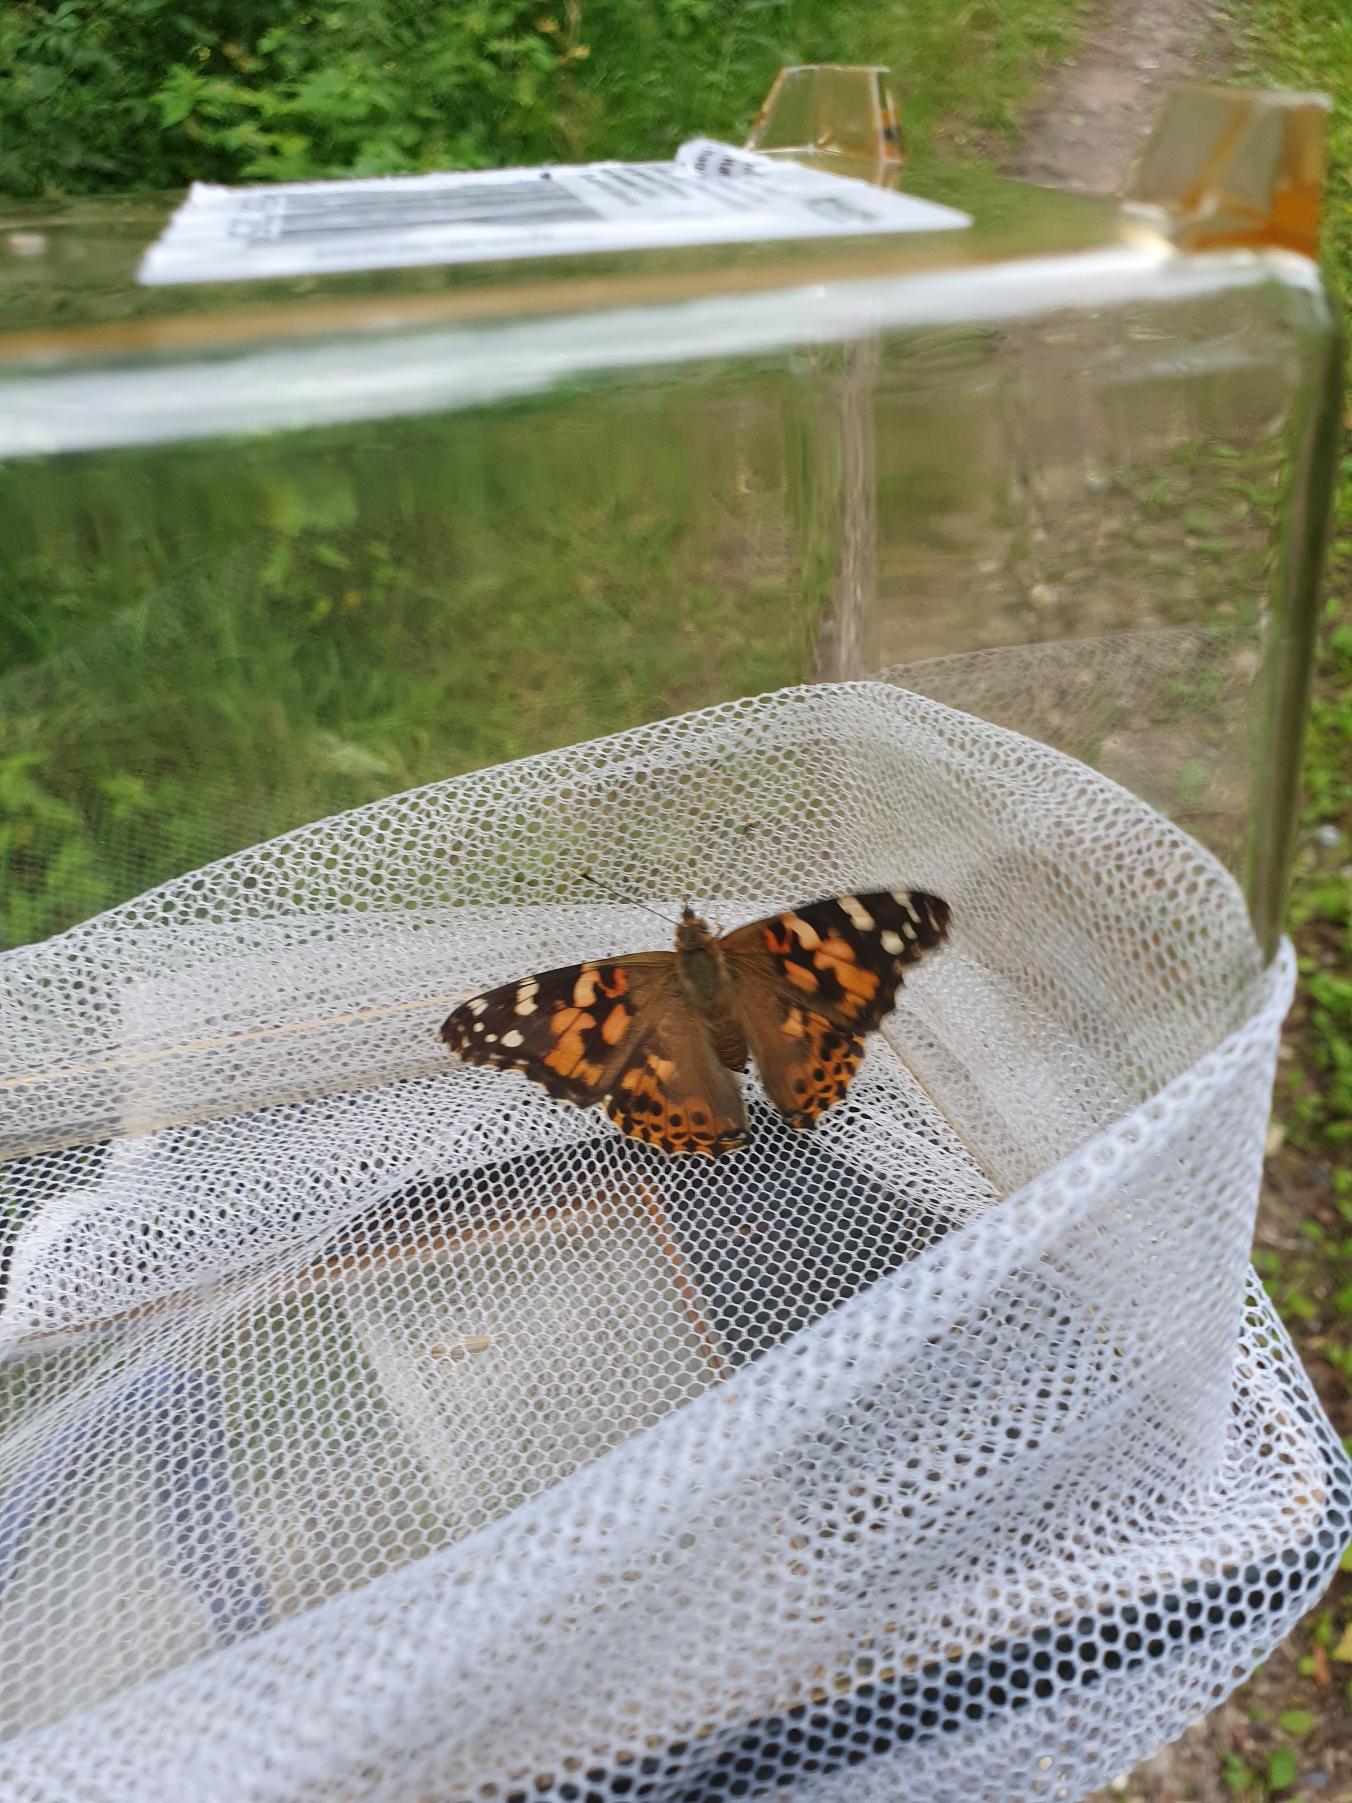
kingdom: Animalia
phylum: Arthropoda
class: Insecta
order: Lepidoptera
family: Nymphalidae
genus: Vanessa
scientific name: Vanessa cardui
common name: Tidselsommerfugl
